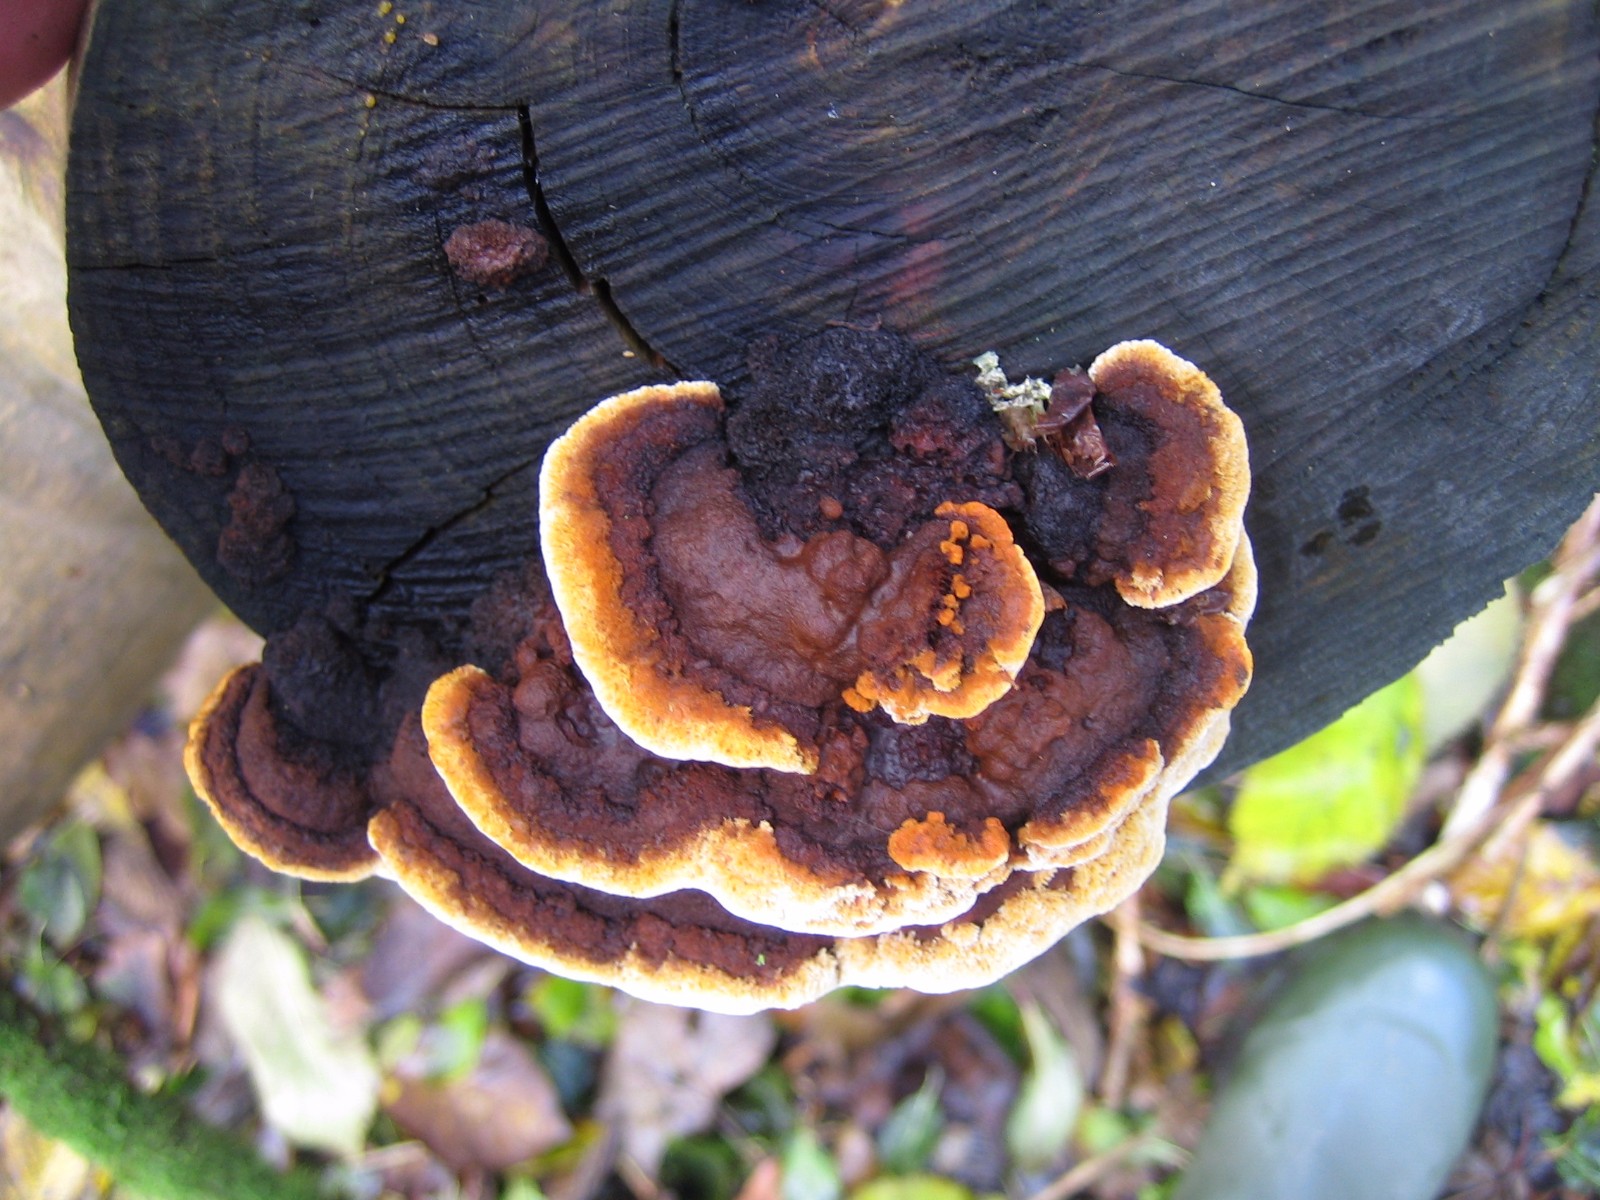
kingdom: Fungi
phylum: Basidiomycota
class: Agaricomycetes
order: Gloeophyllales
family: Gloeophyllaceae
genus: Gloeophyllum
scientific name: Gloeophyllum sepiarium
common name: fyrre-korkhat
